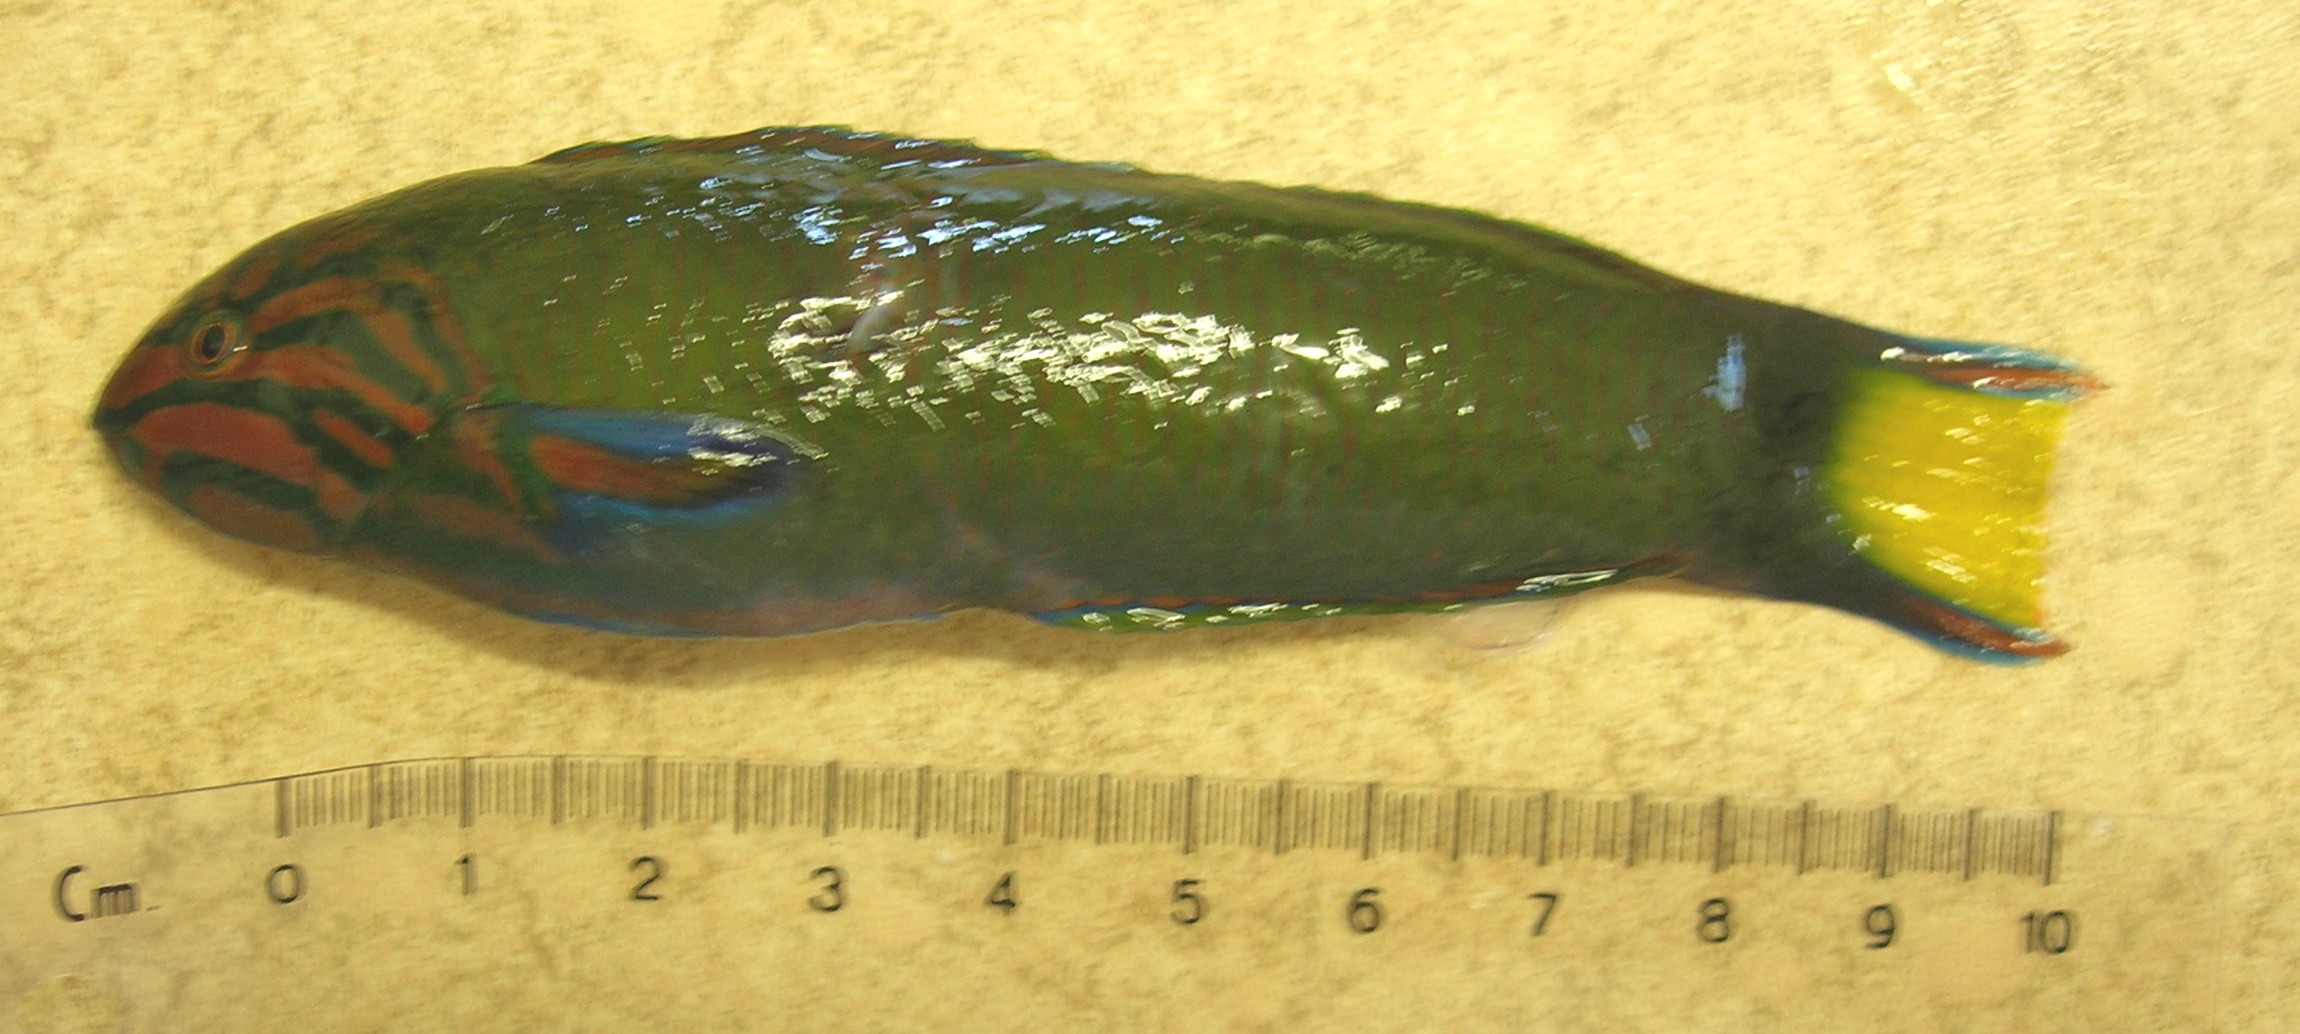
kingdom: Animalia
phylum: Chordata
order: Perciformes
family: Labridae
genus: Thalassoma
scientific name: Thalassoma lunare
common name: Blue wrasse
